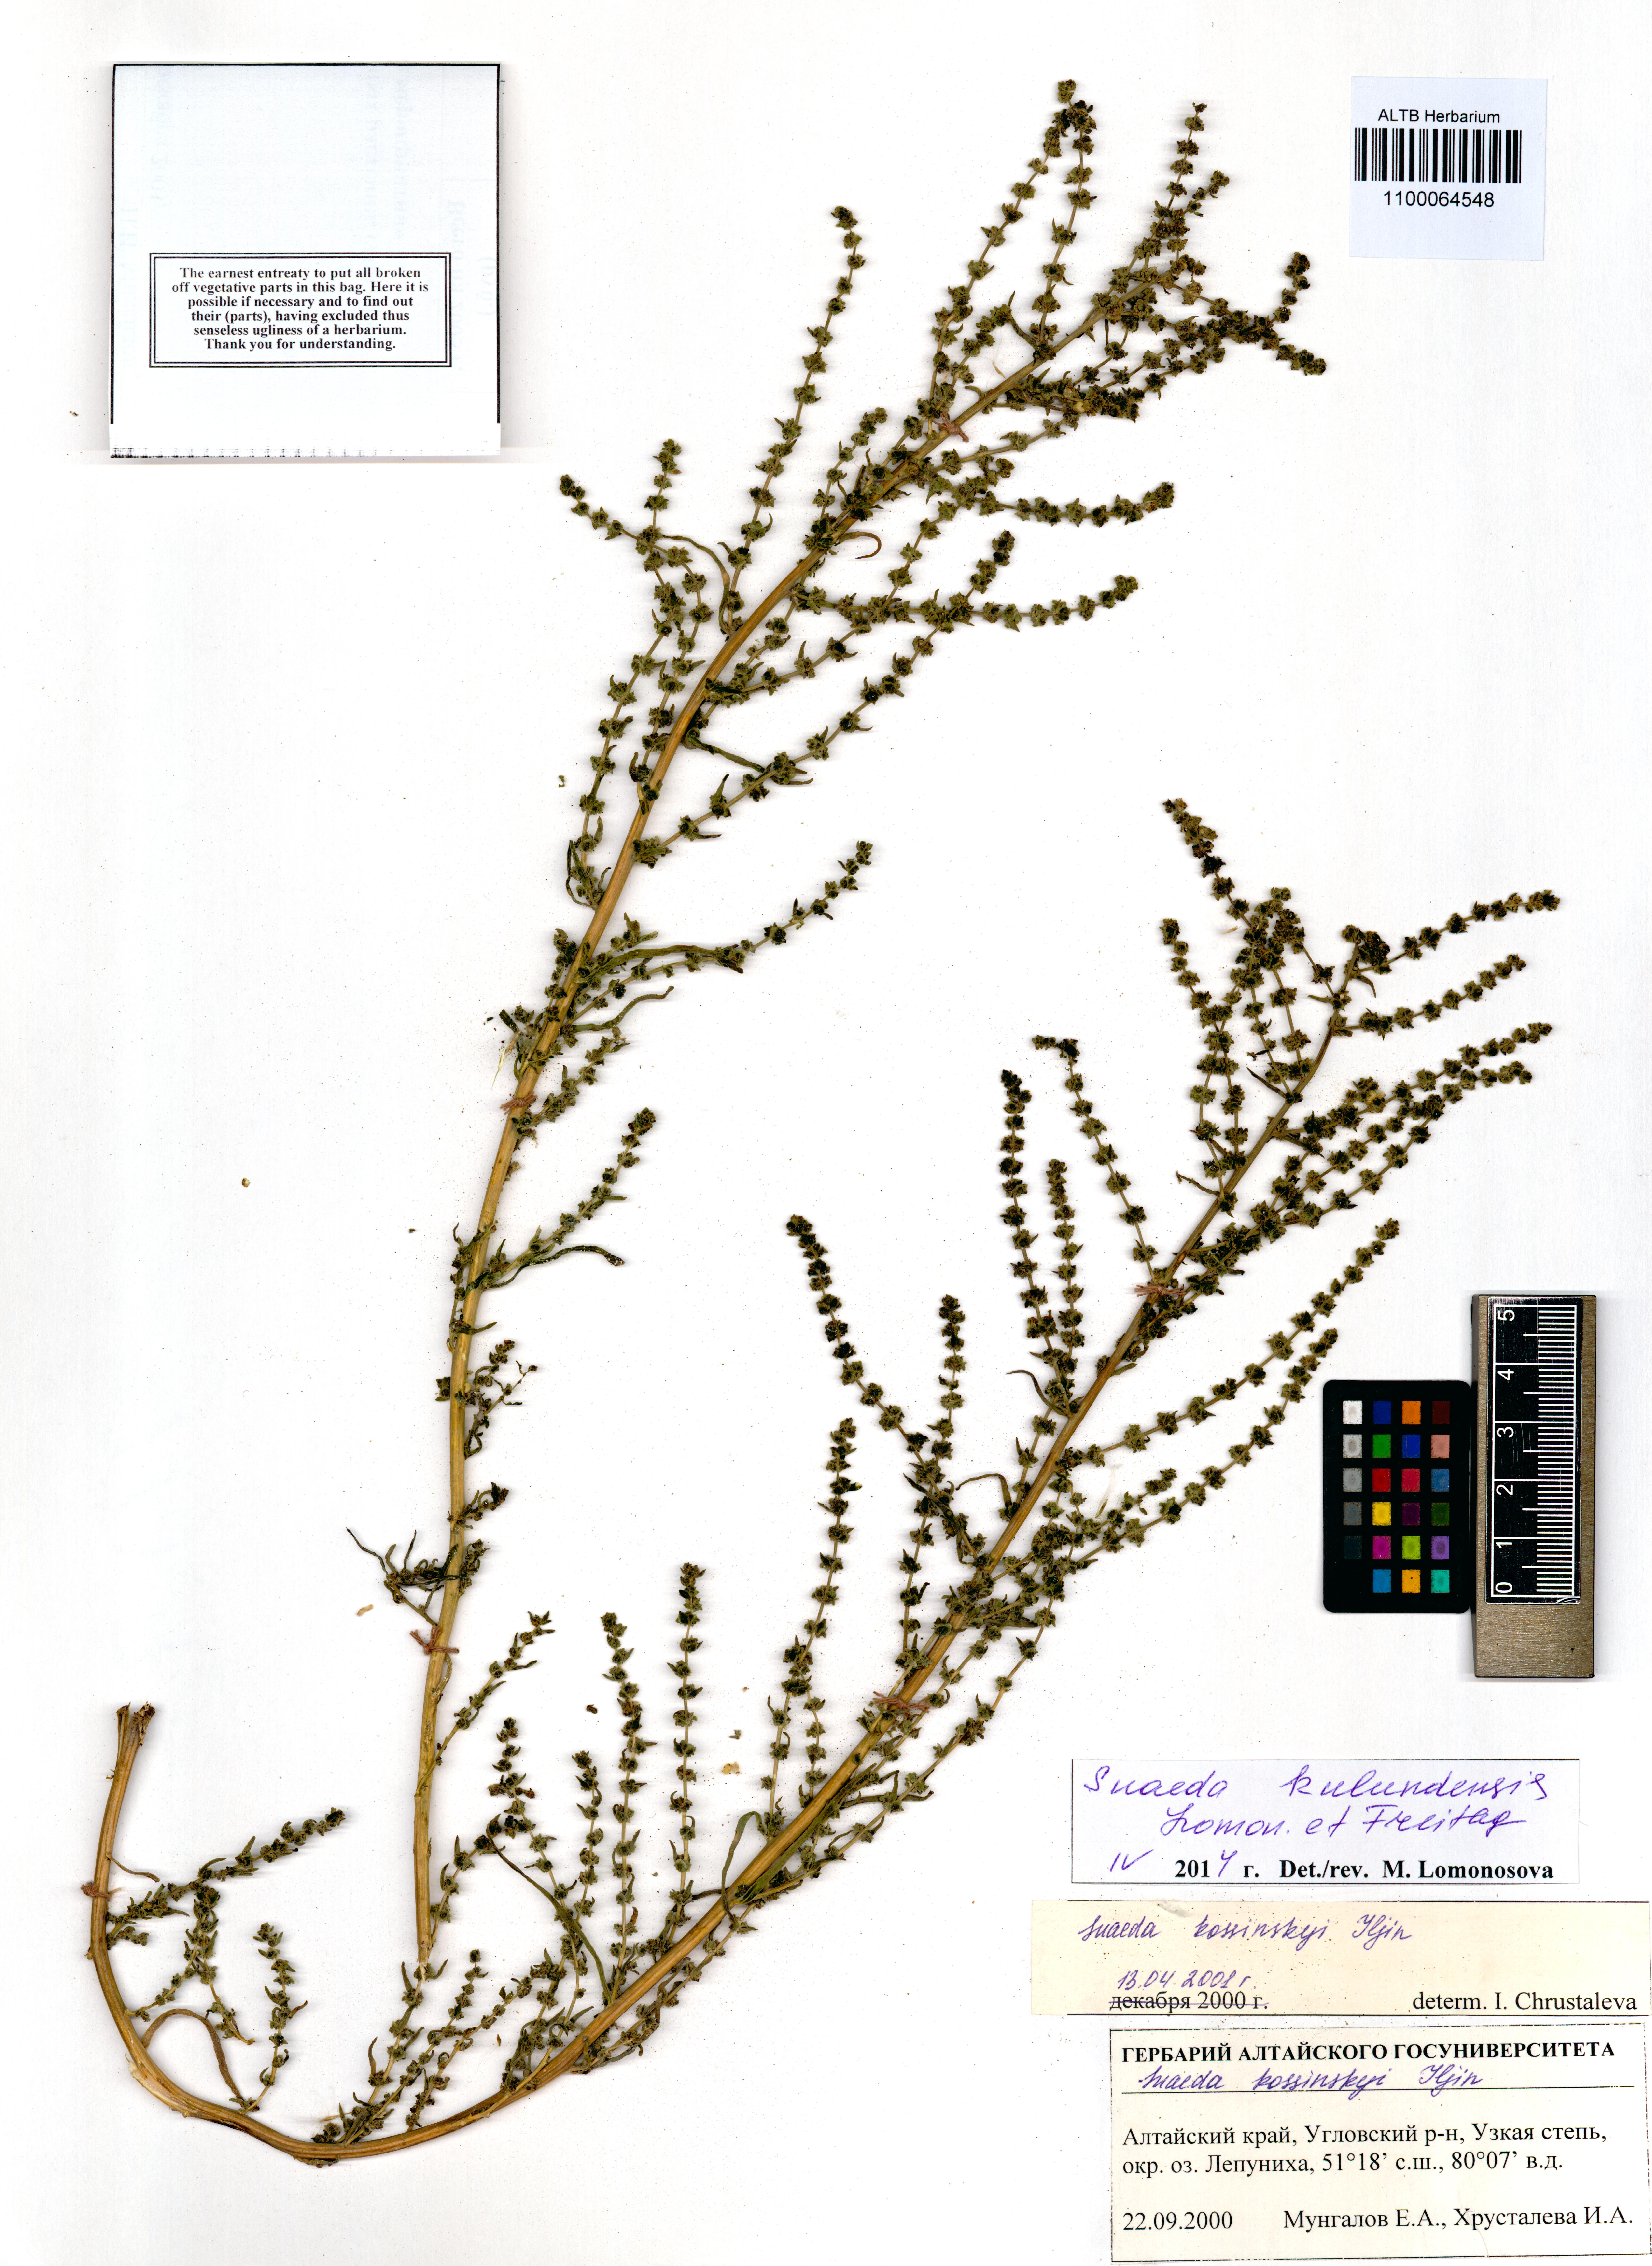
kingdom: Plantae
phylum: Tracheophyta
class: Magnoliopsida
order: Caryophyllales
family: Amaranthaceae
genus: Suaeda
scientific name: Suaeda kulundensis
